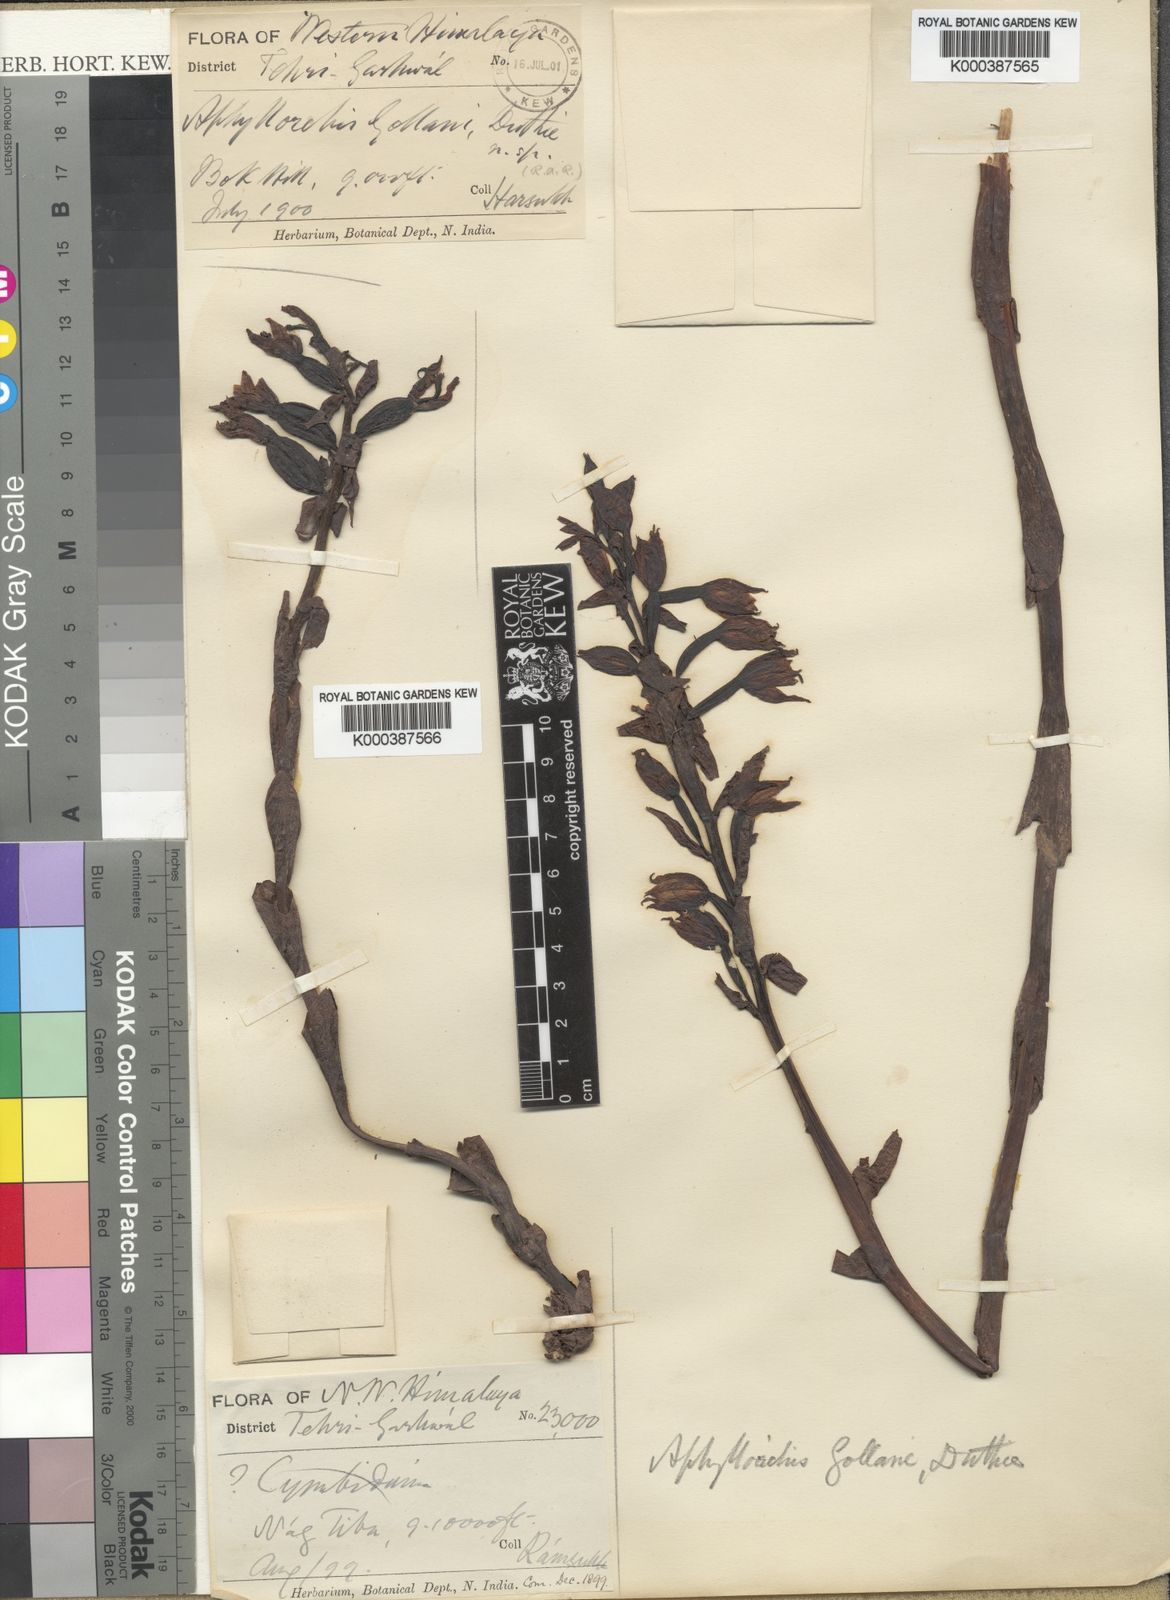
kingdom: Plantae
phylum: Tracheophyta
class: Liliopsida
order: Asparagales
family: Orchidaceae
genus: Aphyllorchis
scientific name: Aphyllorchis montana
